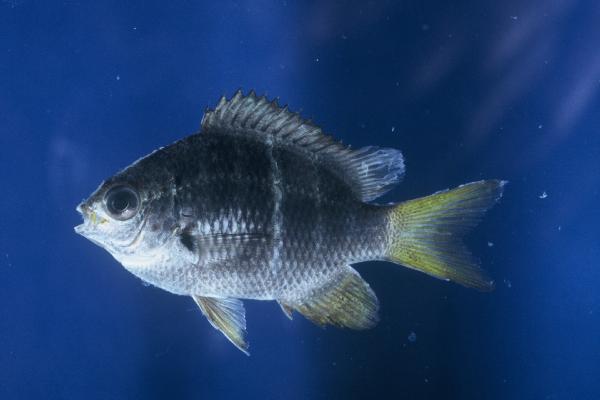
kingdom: Animalia
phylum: Chordata
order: Perciformes
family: Pomacentridae
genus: Abudefduf
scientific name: Abudefduf notatus
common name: Yellow-tail sergeant
